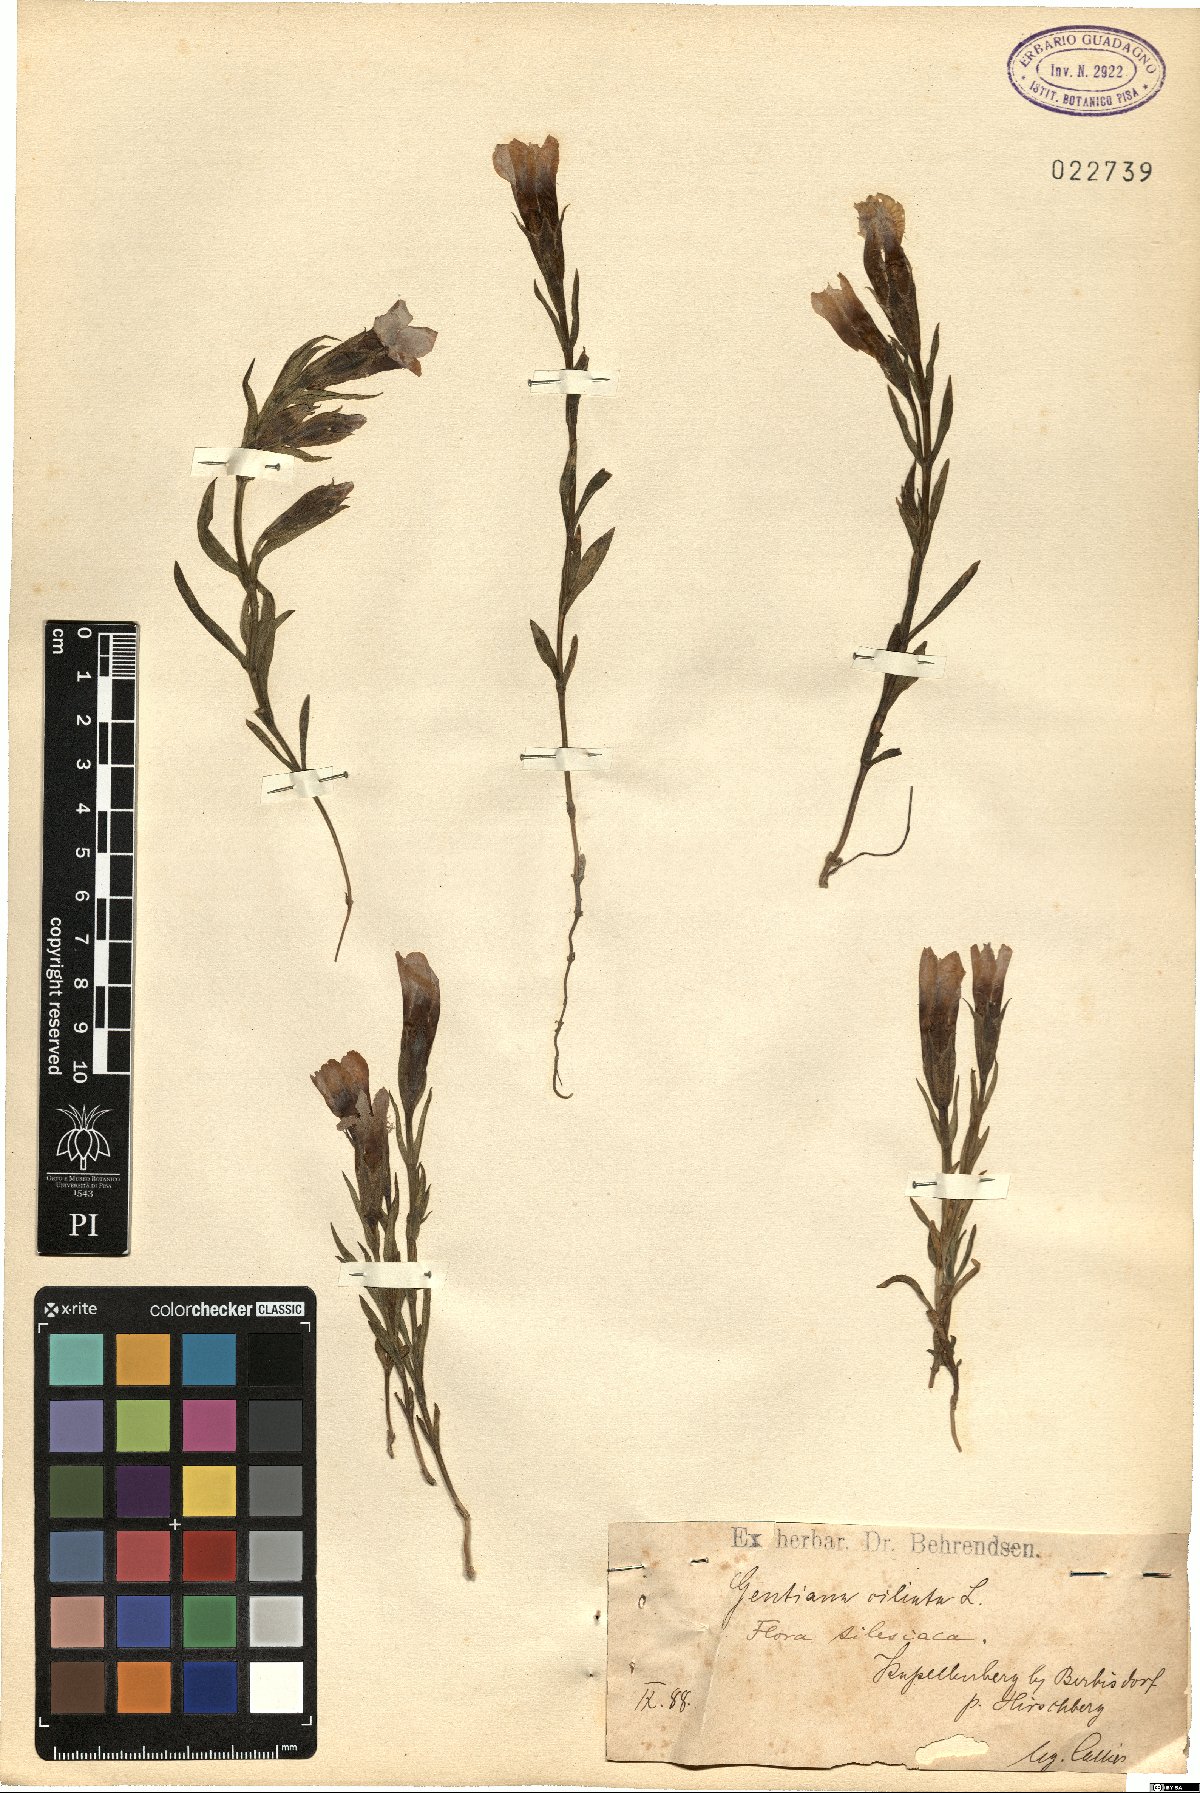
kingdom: Plantae
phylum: Tracheophyta
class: Magnoliopsida
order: Gentianales
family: Gentianaceae
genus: Gentianopsis
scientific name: Gentianopsis ciliata
